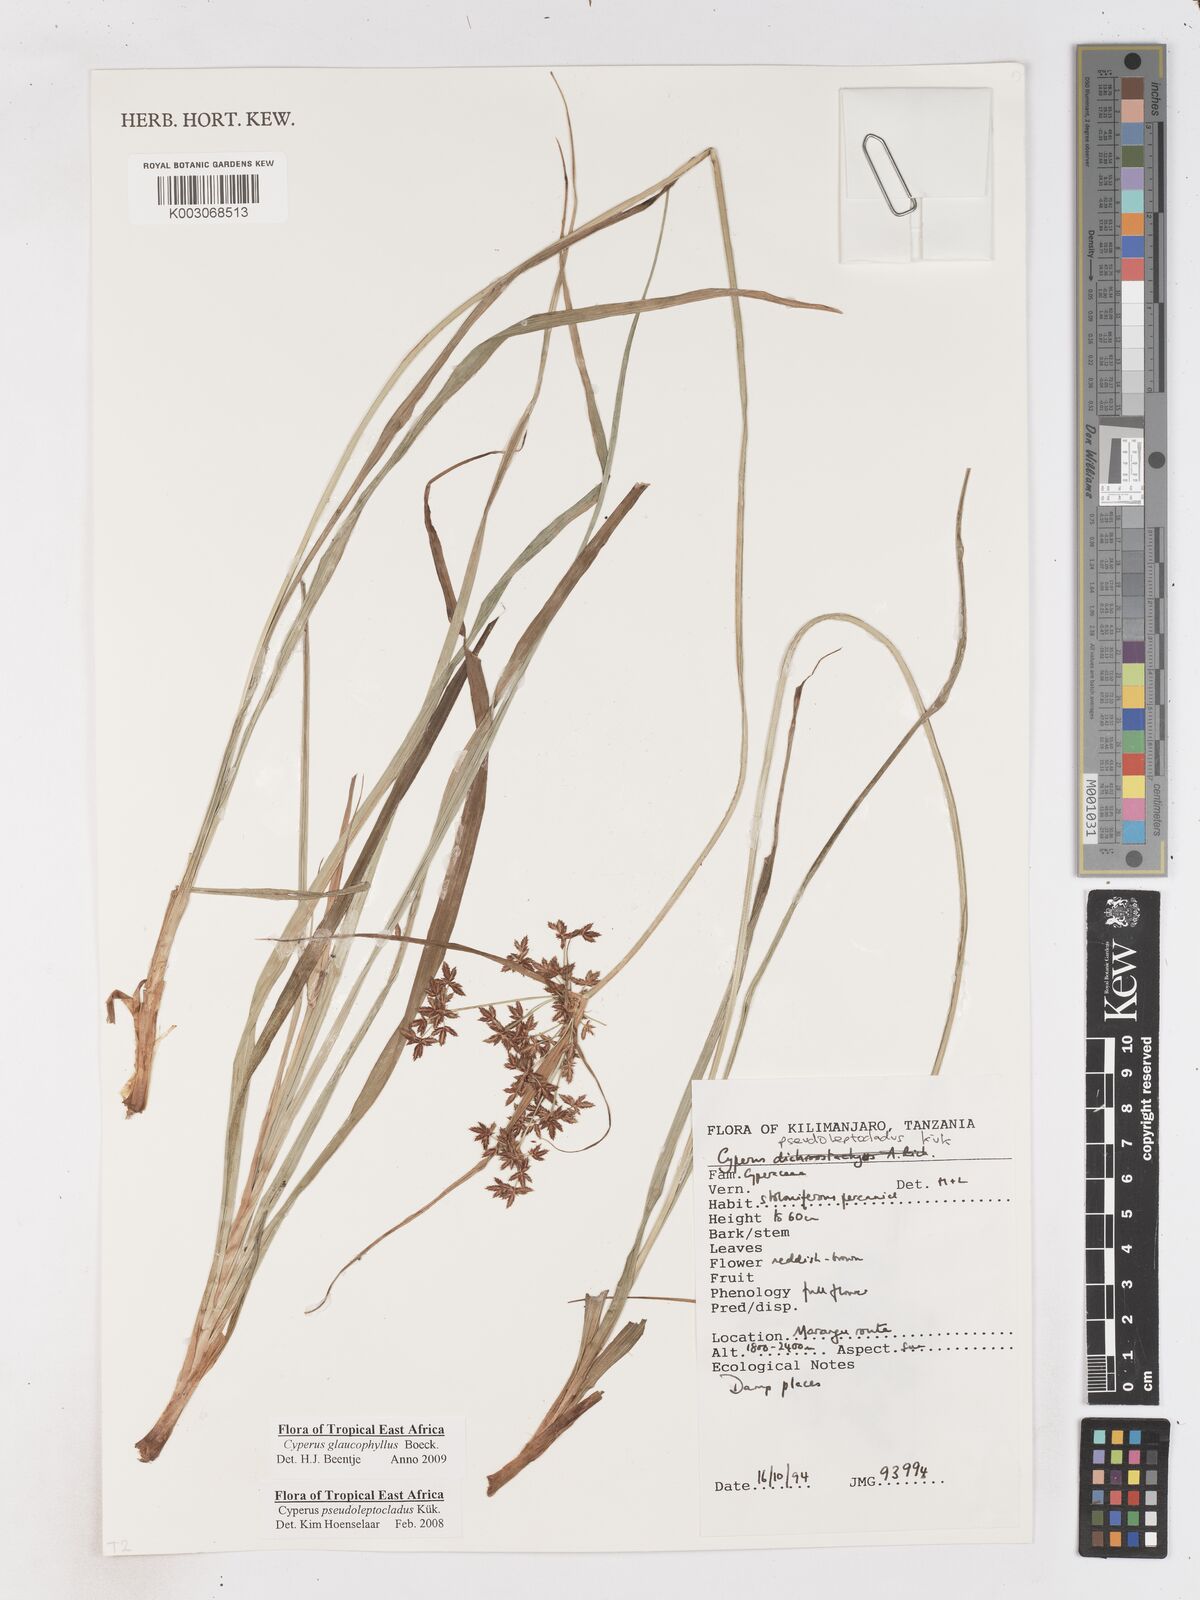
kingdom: Plantae
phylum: Tracheophyta
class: Liliopsida
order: Poales
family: Cyperaceae
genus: Cyperus
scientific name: Cyperus glaucophyllus
